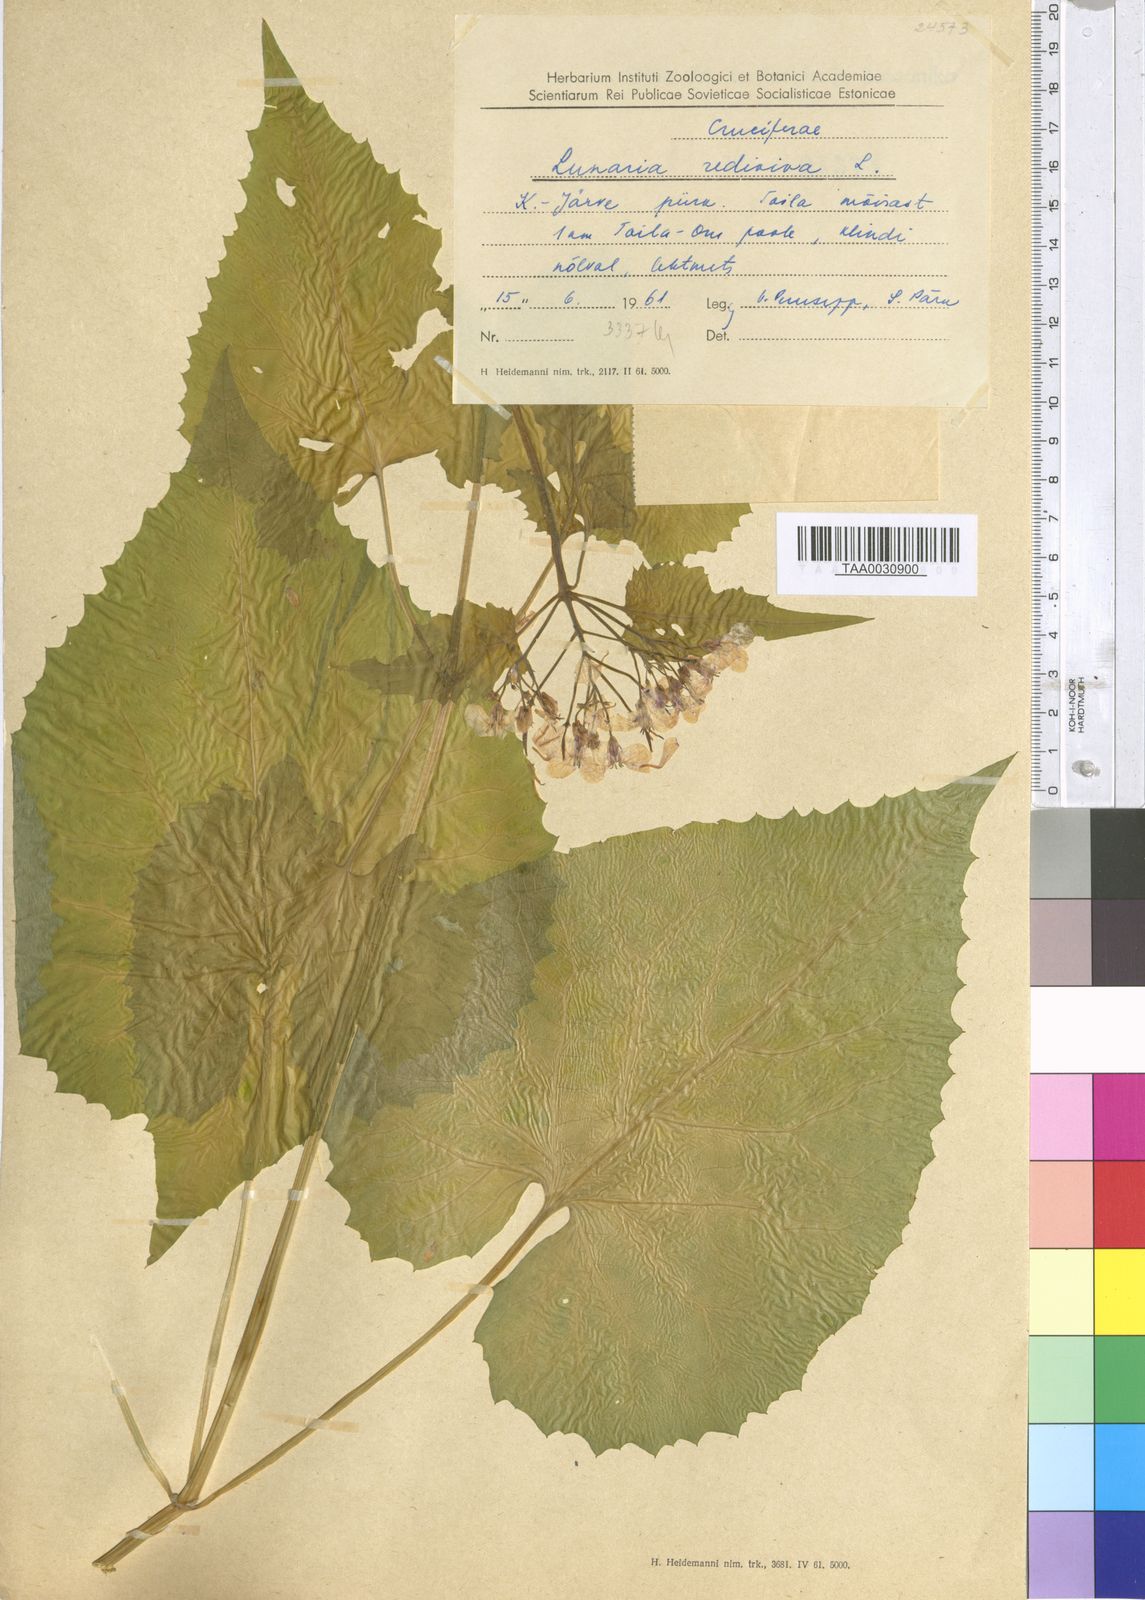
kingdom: Plantae
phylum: Tracheophyta
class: Magnoliopsida
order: Brassicales
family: Brassicaceae
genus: Lunaria
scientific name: Lunaria rediviva
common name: Perennial honesty
